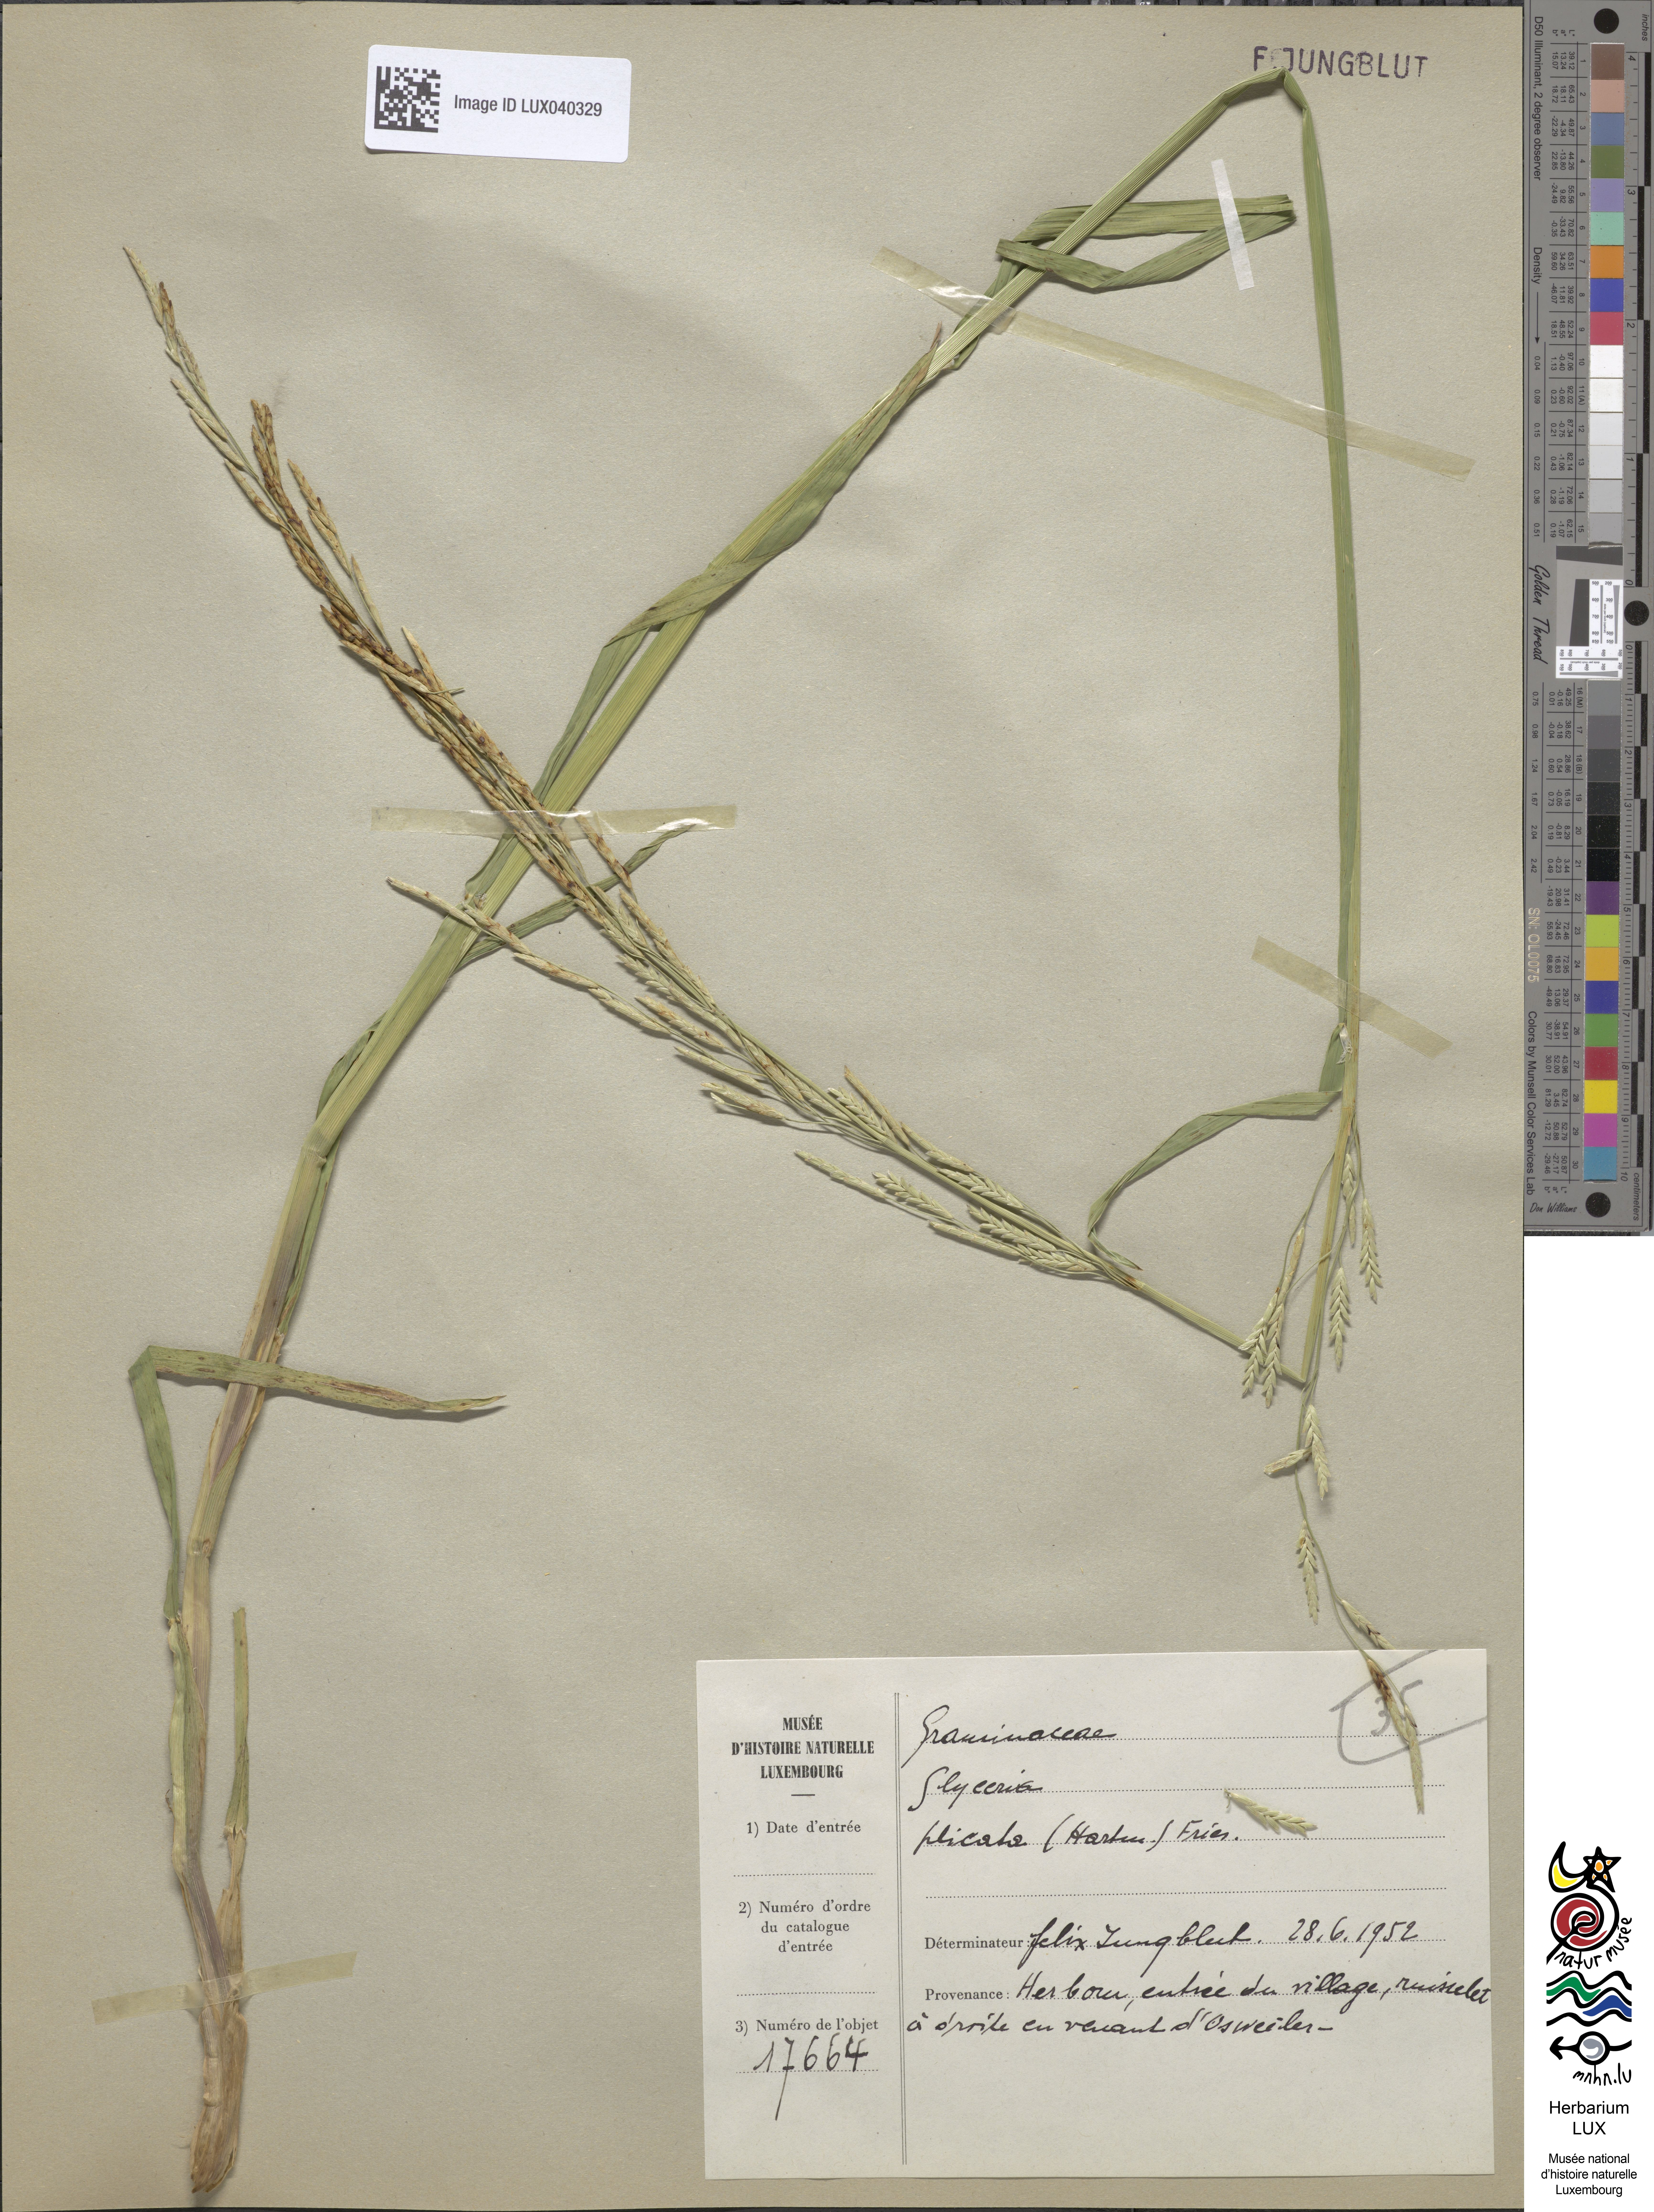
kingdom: Plantae
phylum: Tracheophyta
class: Liliopsida
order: Poales
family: Poaceae
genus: Glyceria
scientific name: Glyceria notata
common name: Plicate sweet-grass
